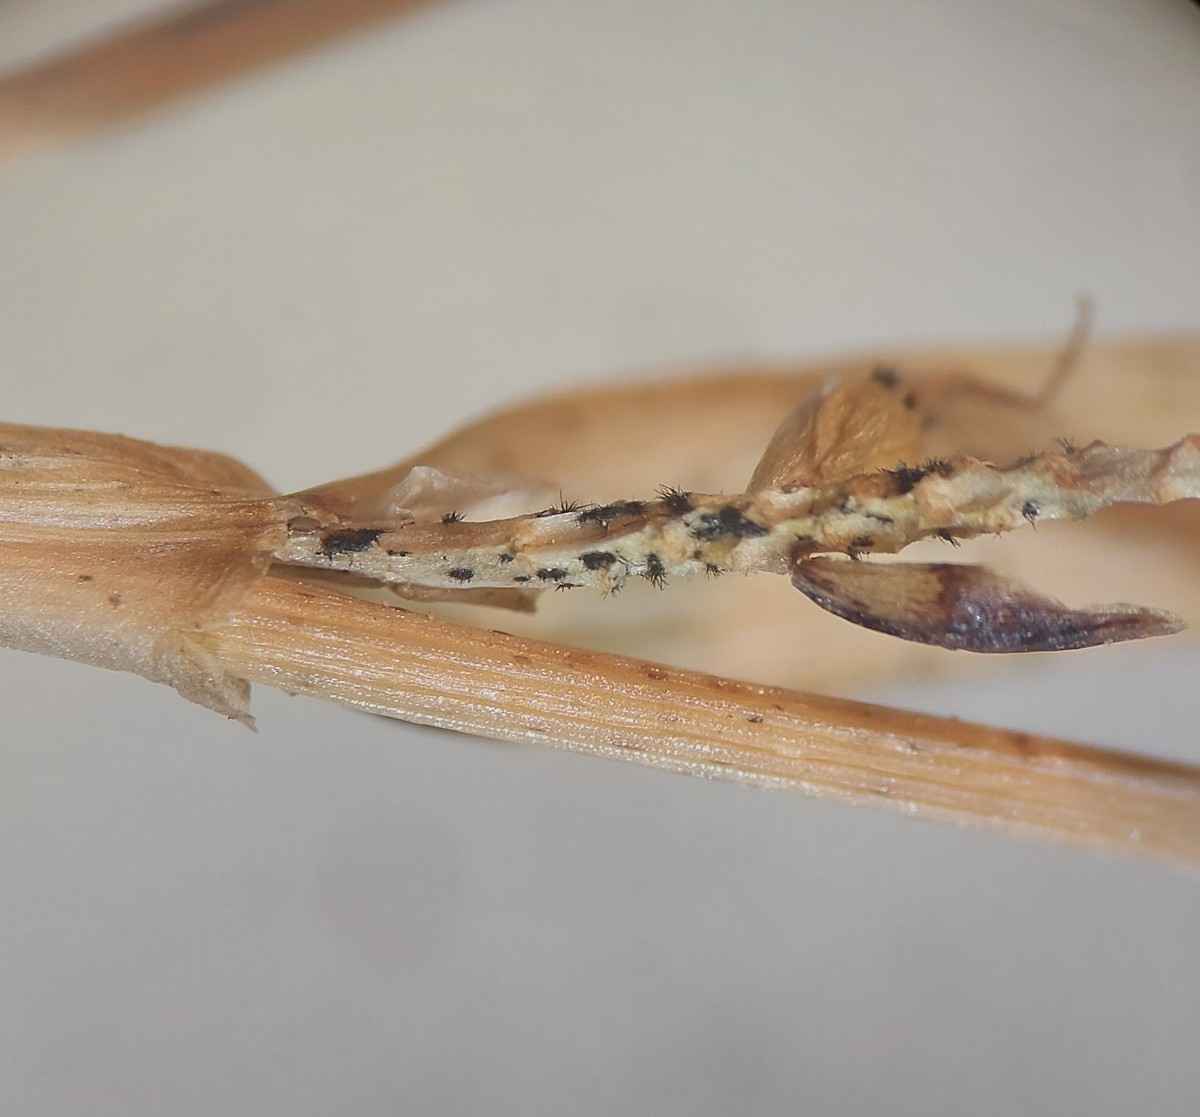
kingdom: Fungi
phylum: Ascomycota
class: Sordariomycetes
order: Glomerellales
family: Glomerellaceae
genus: Colletotrichum
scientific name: Colletotrichum dematium
